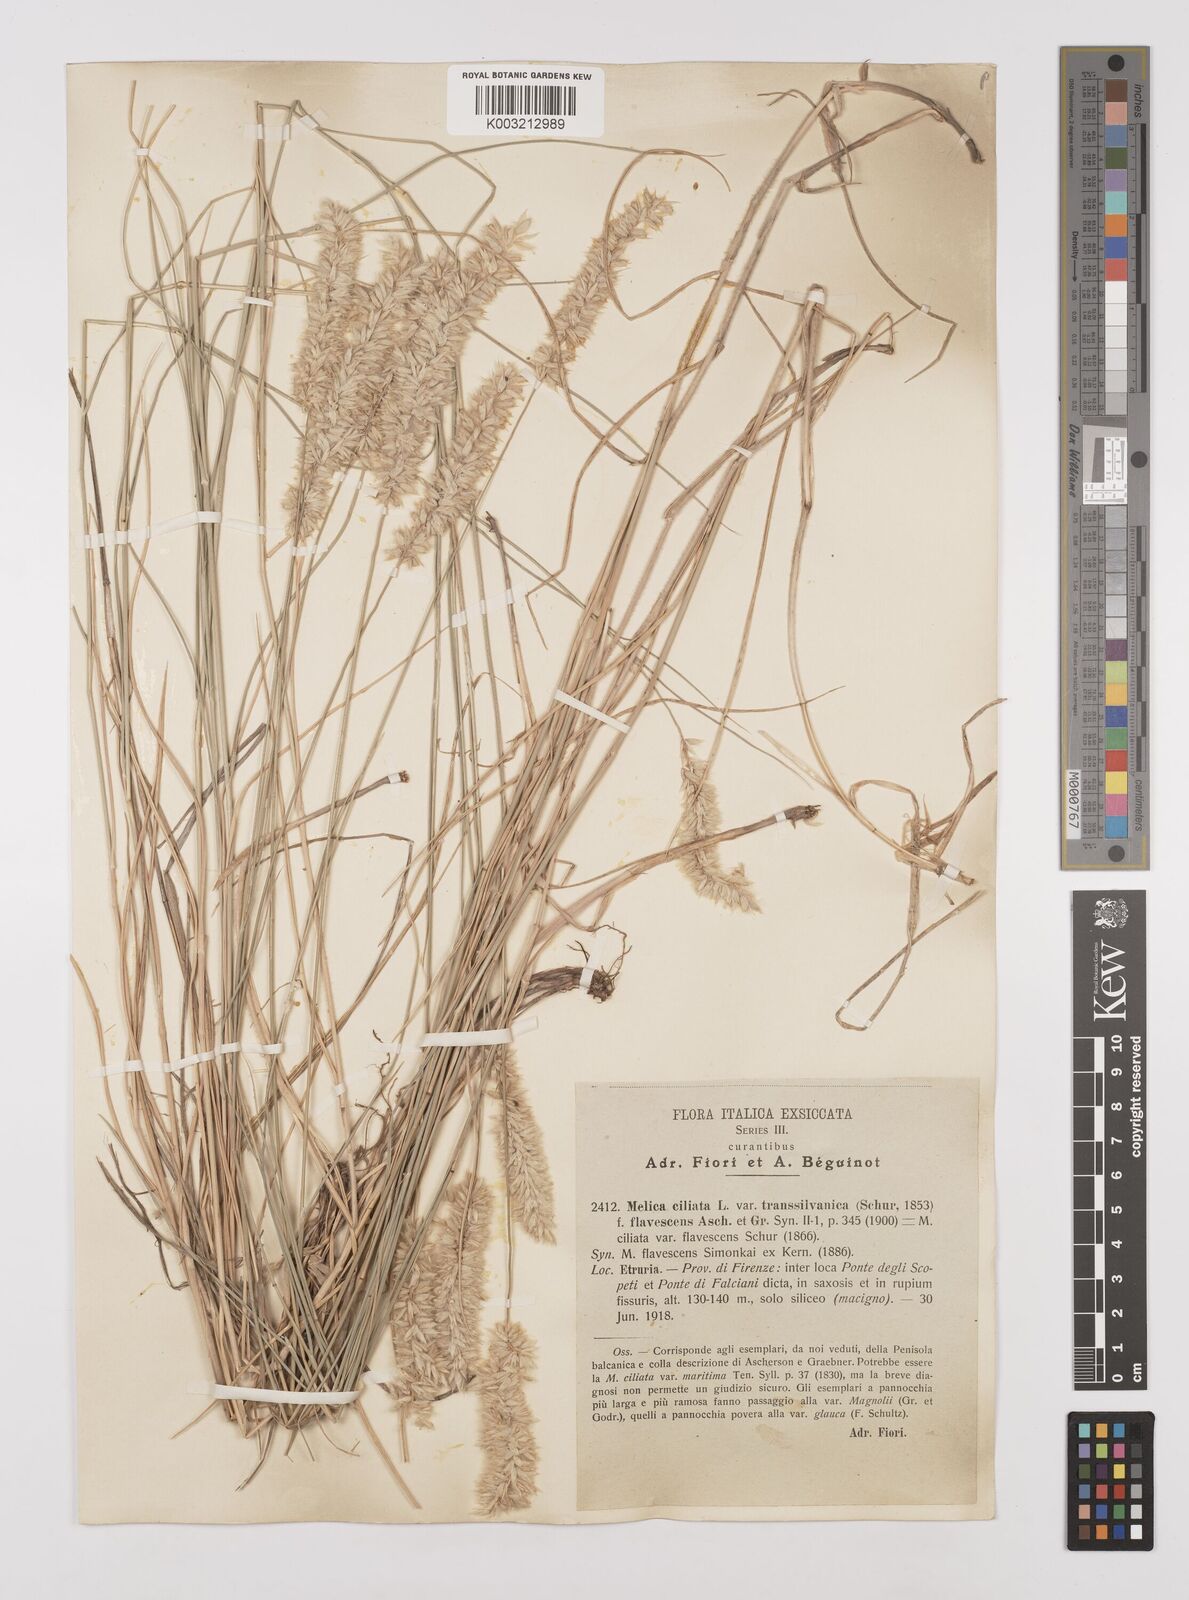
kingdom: Plantae
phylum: Tracheophyta
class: Liliopsida
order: Poales
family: Poaceae
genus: Melica
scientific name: Melica transsilvanica
